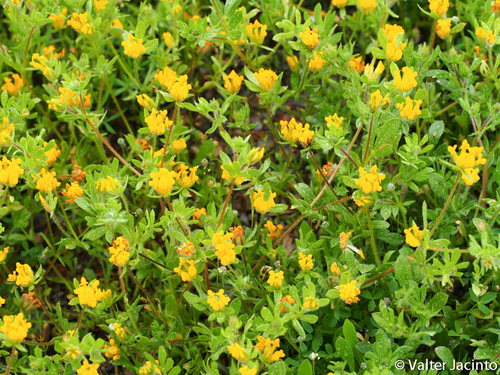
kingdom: Plantae
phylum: Tracheophyta
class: Magnoliopsida
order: Fabales
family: Fabaceae
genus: Anthyllis
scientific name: Anthyllis lotoides
